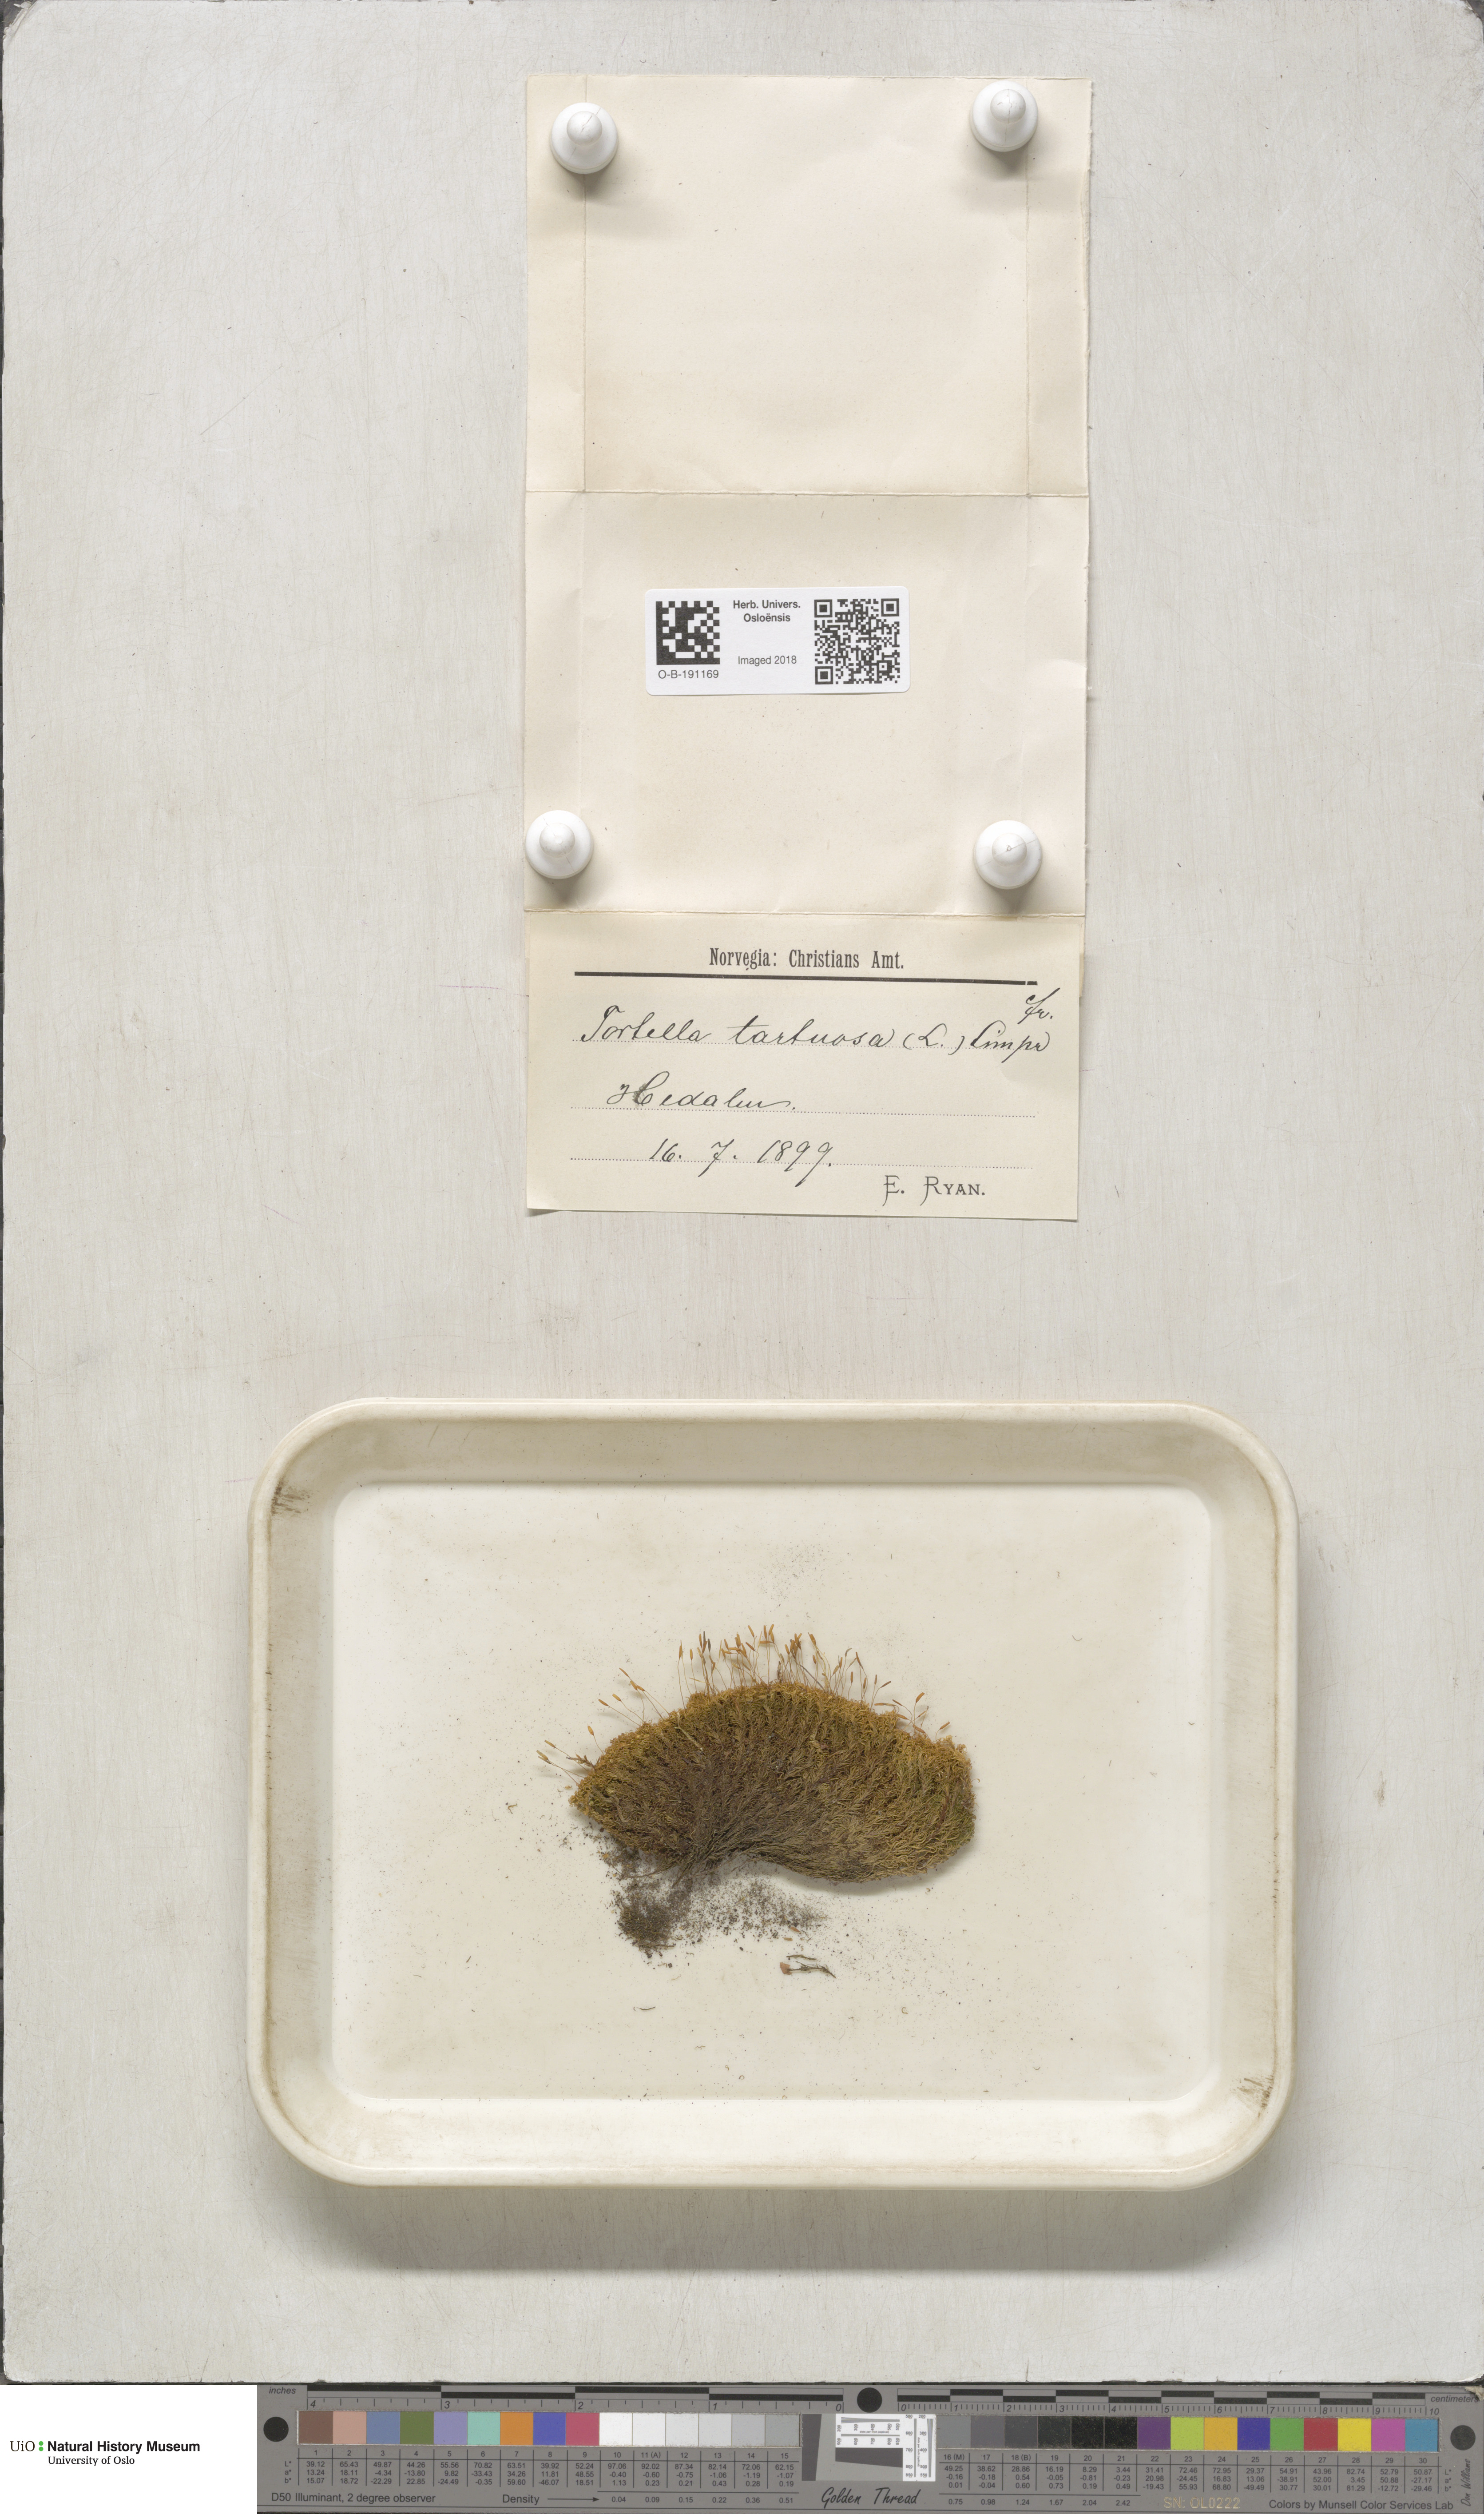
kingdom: Plantae
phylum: Bryophyta
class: Bryopsida
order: Pottiales
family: Pottiaceae
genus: Tortella
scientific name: Tortella tortuosa
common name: Frizzled crisp moss
